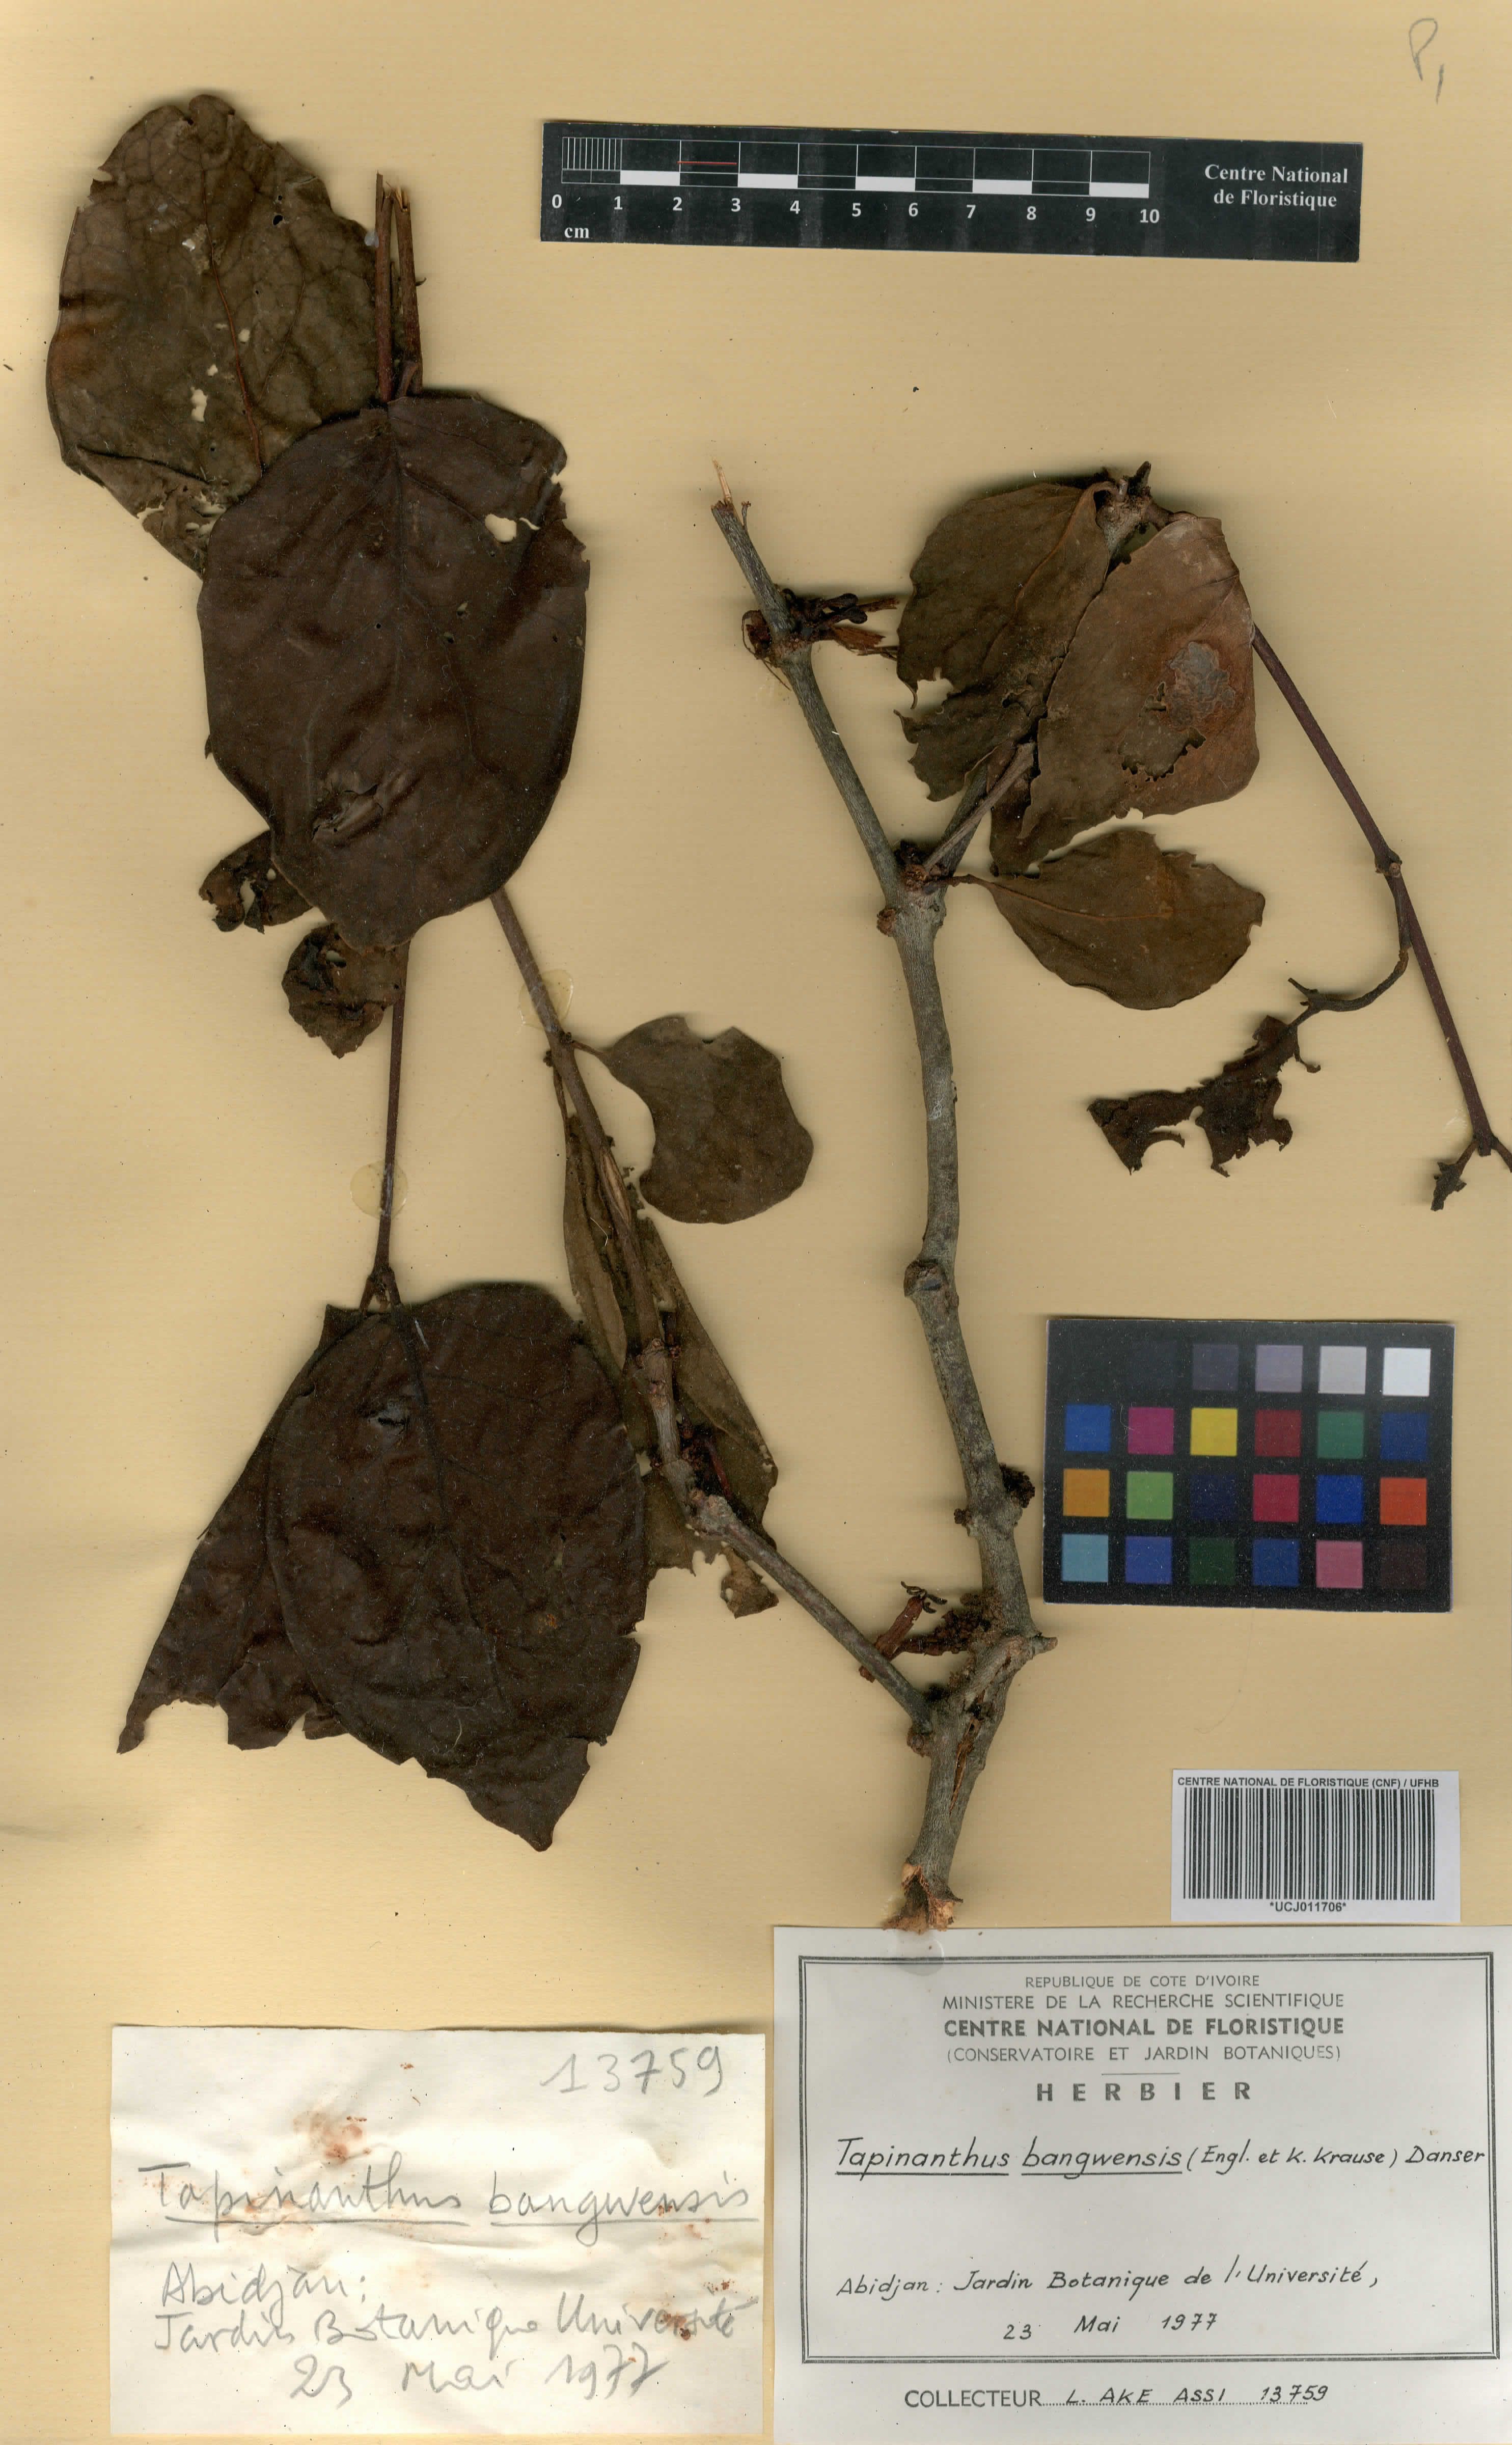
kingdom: Plantae
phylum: Tracheophyta
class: Magnoliopsida
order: Santalales
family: Loranthaceae
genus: Tapinanthus
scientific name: Tapinanthus bangwensis
